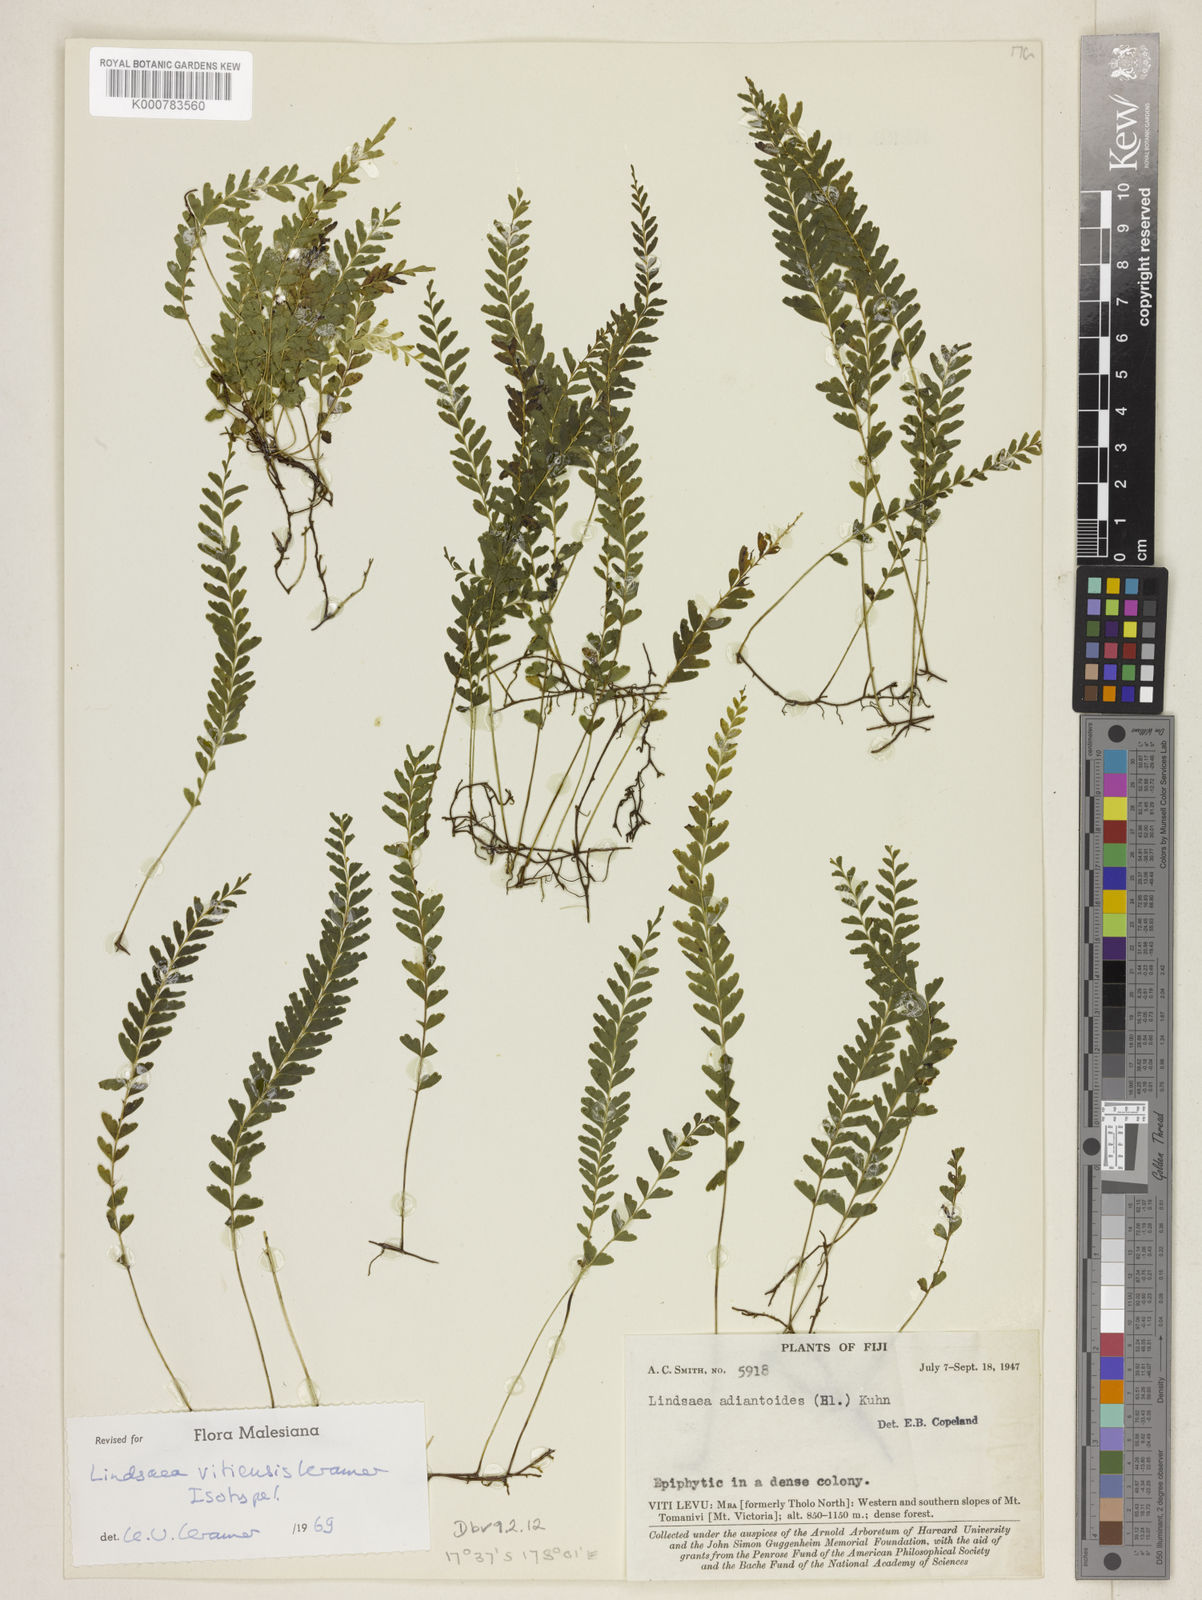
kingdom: Plantae
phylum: Tracheophyta
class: Polypodiopsida
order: Polypodiales
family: Lindsaeaceae
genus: Lindsaea
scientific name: Lindsaea vitiensis
